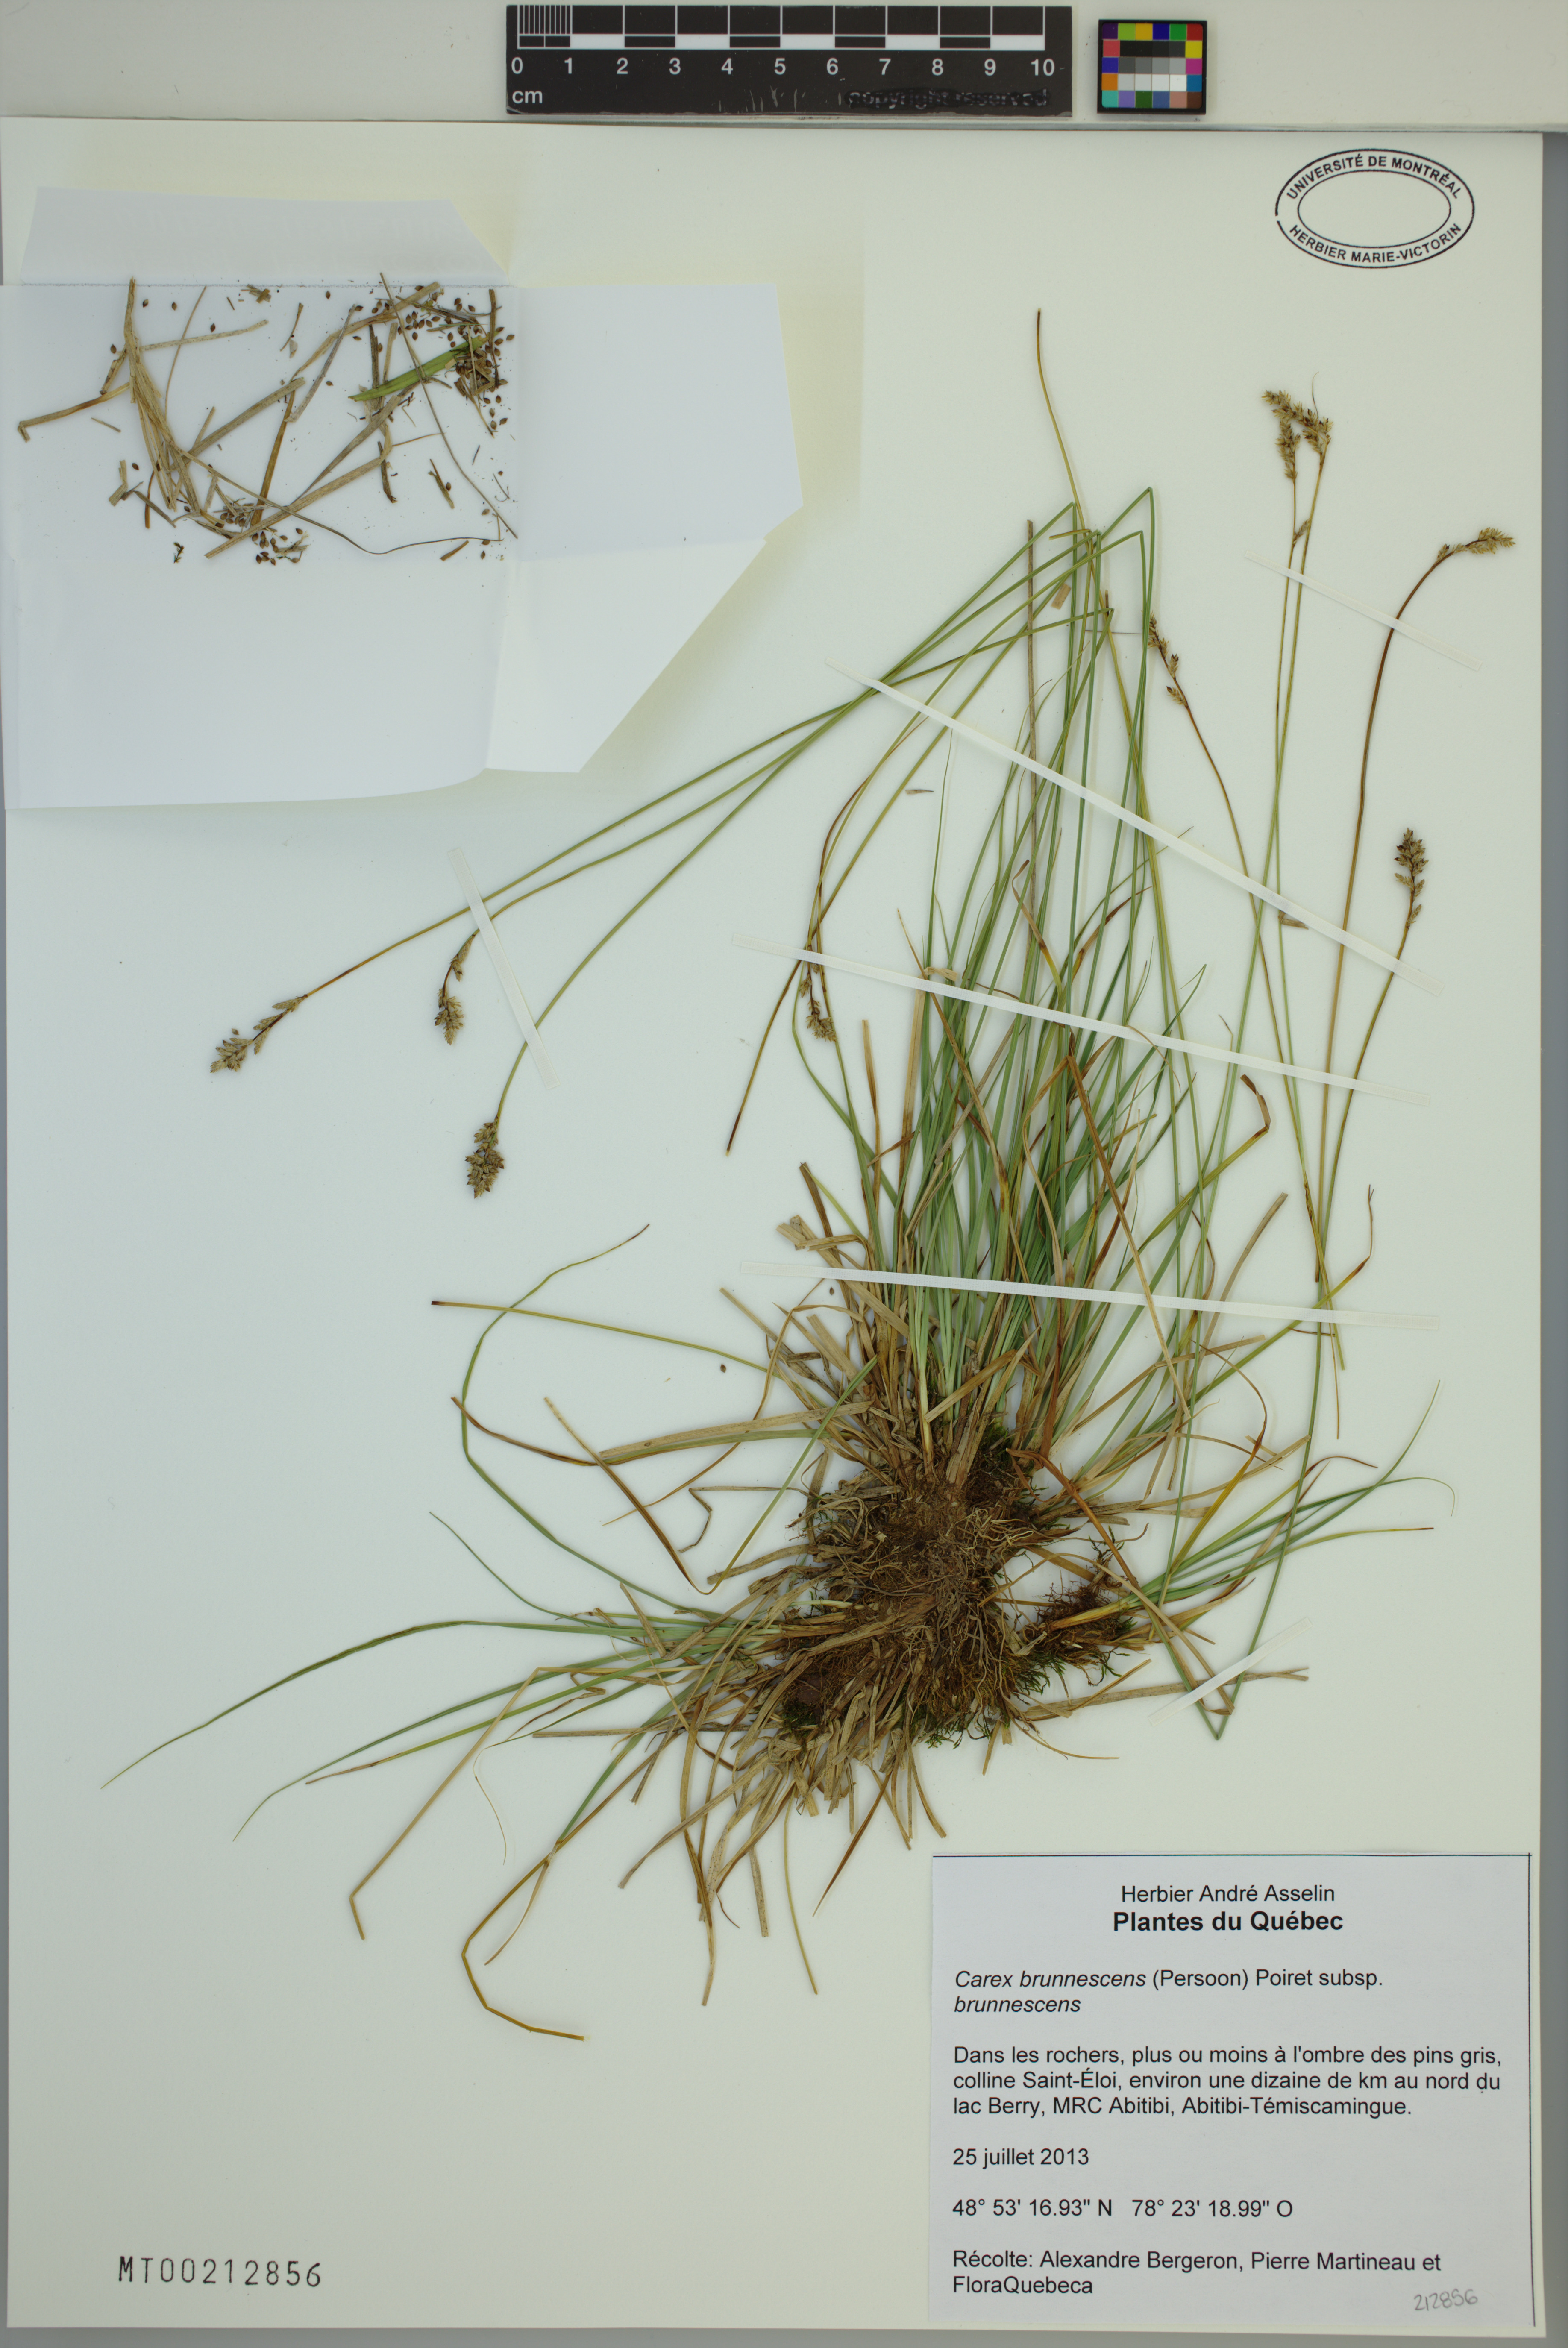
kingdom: Plantae
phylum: Tracheophyta
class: Liliopsida
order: Poales
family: Cyperaceae
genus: Carex
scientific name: Carex brunnescens
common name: Brown sedge
